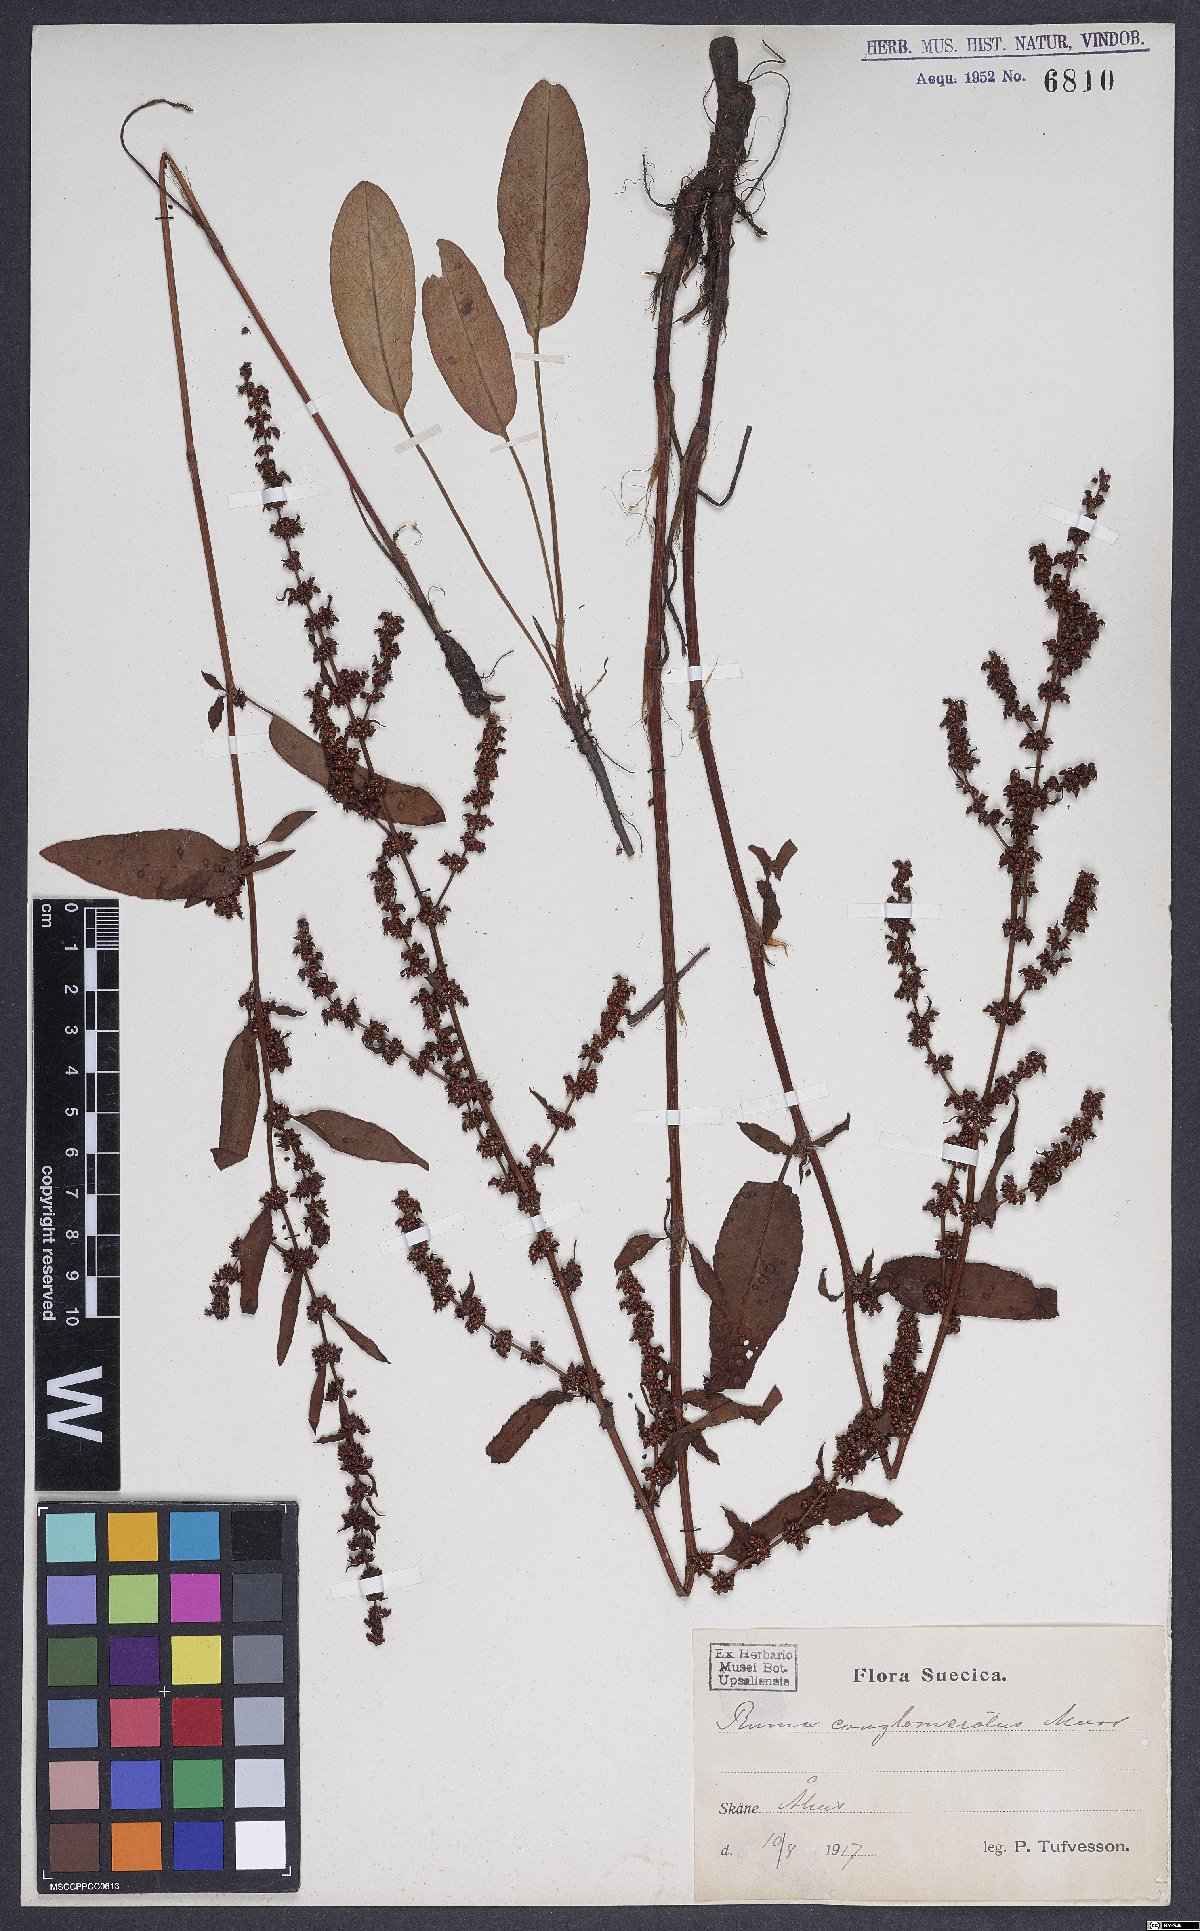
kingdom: Plantae
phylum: Tracheophyta
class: Magnoliopsida
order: Caryophyllales
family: Polygonaceae
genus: Rumex
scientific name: Rumex conglomeratus
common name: Clustered dock
